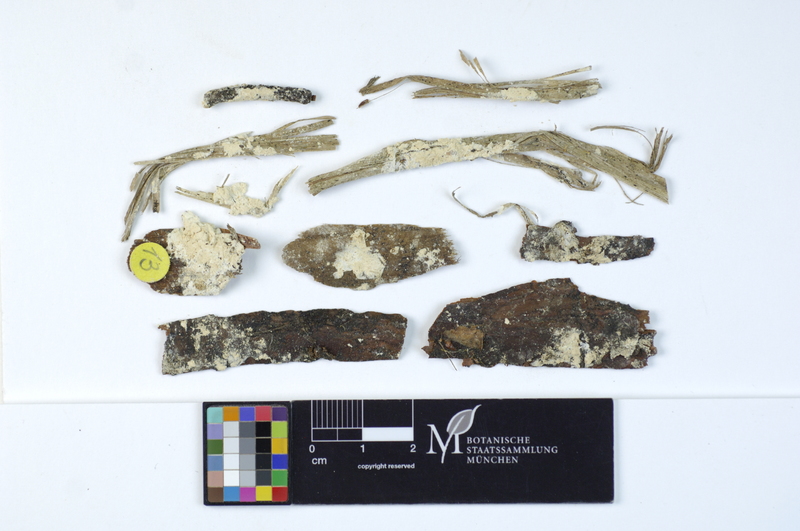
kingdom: Fungi
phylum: Basidiomycota
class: Agaricomycetes
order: Polyporales
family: Dacryobolaceae
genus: Oligoporus
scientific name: Oligoporus rennyi
